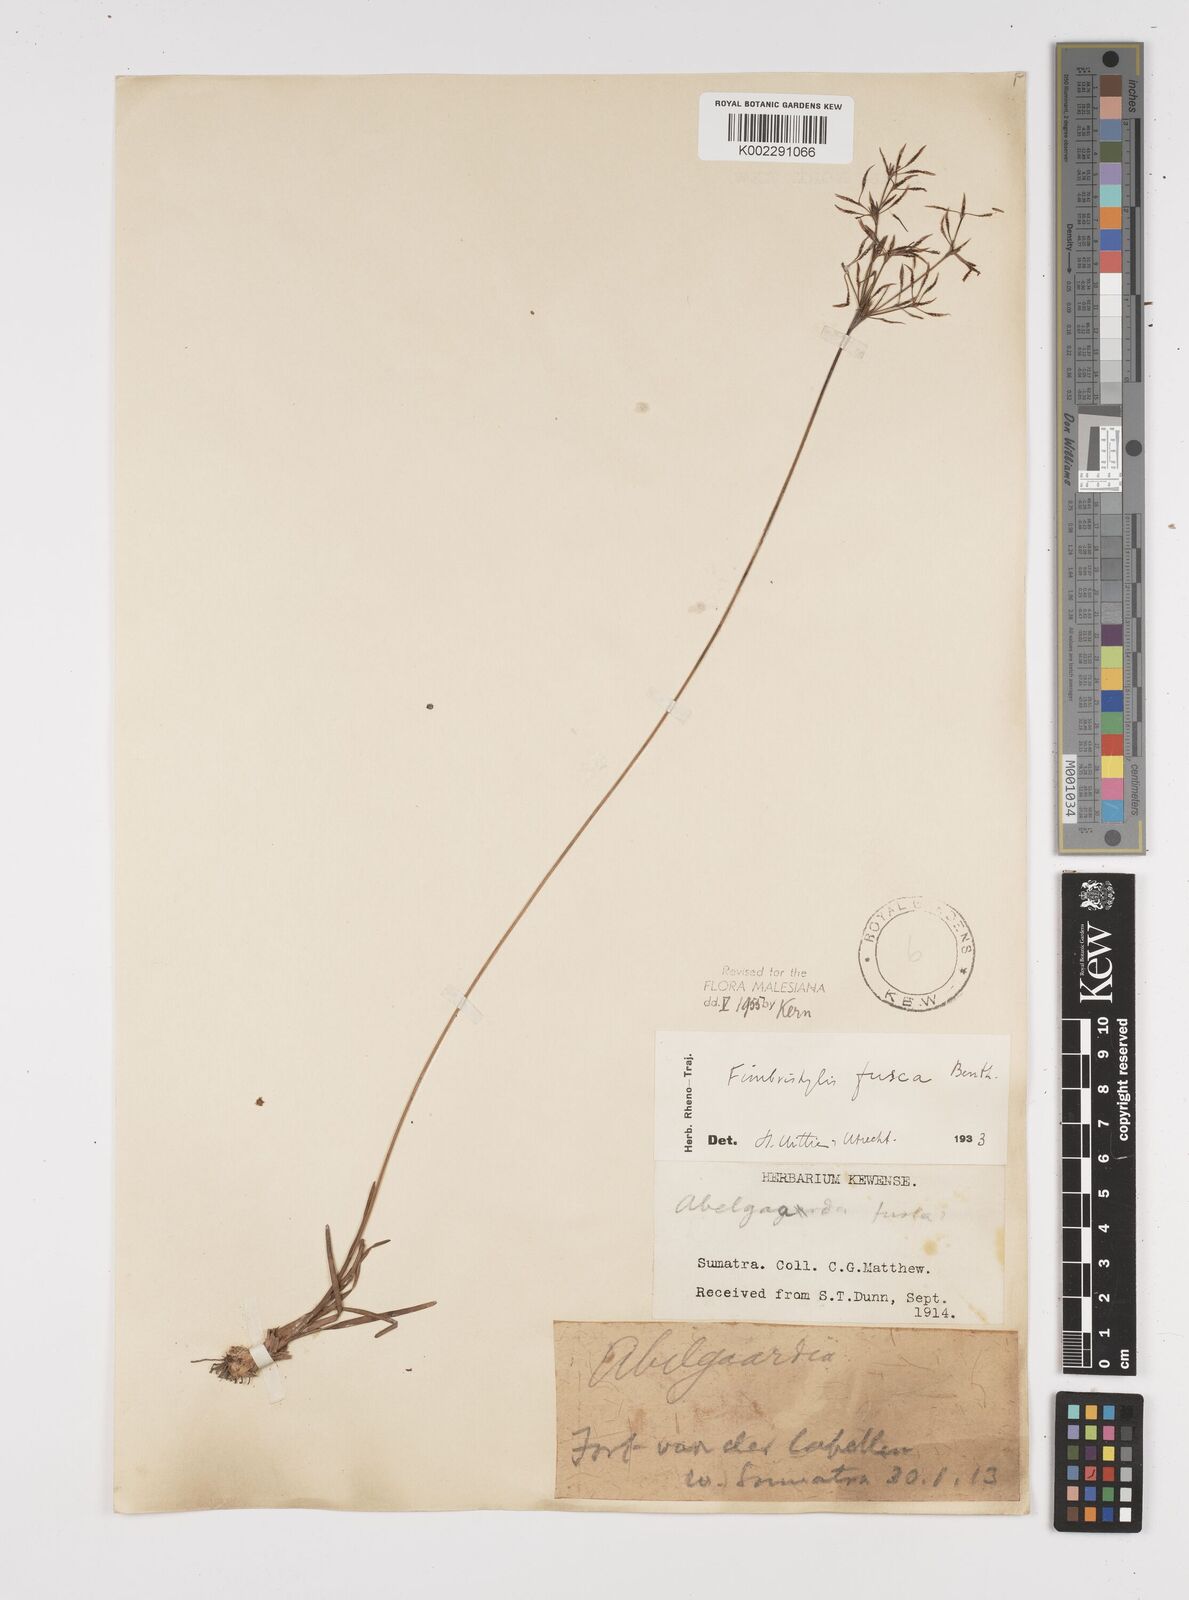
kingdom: Plantae
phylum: Tracheophyta
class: Liliopsida
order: Poales
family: Cyperaceae
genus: Fimbristylis
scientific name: Fimbristylis fusca
